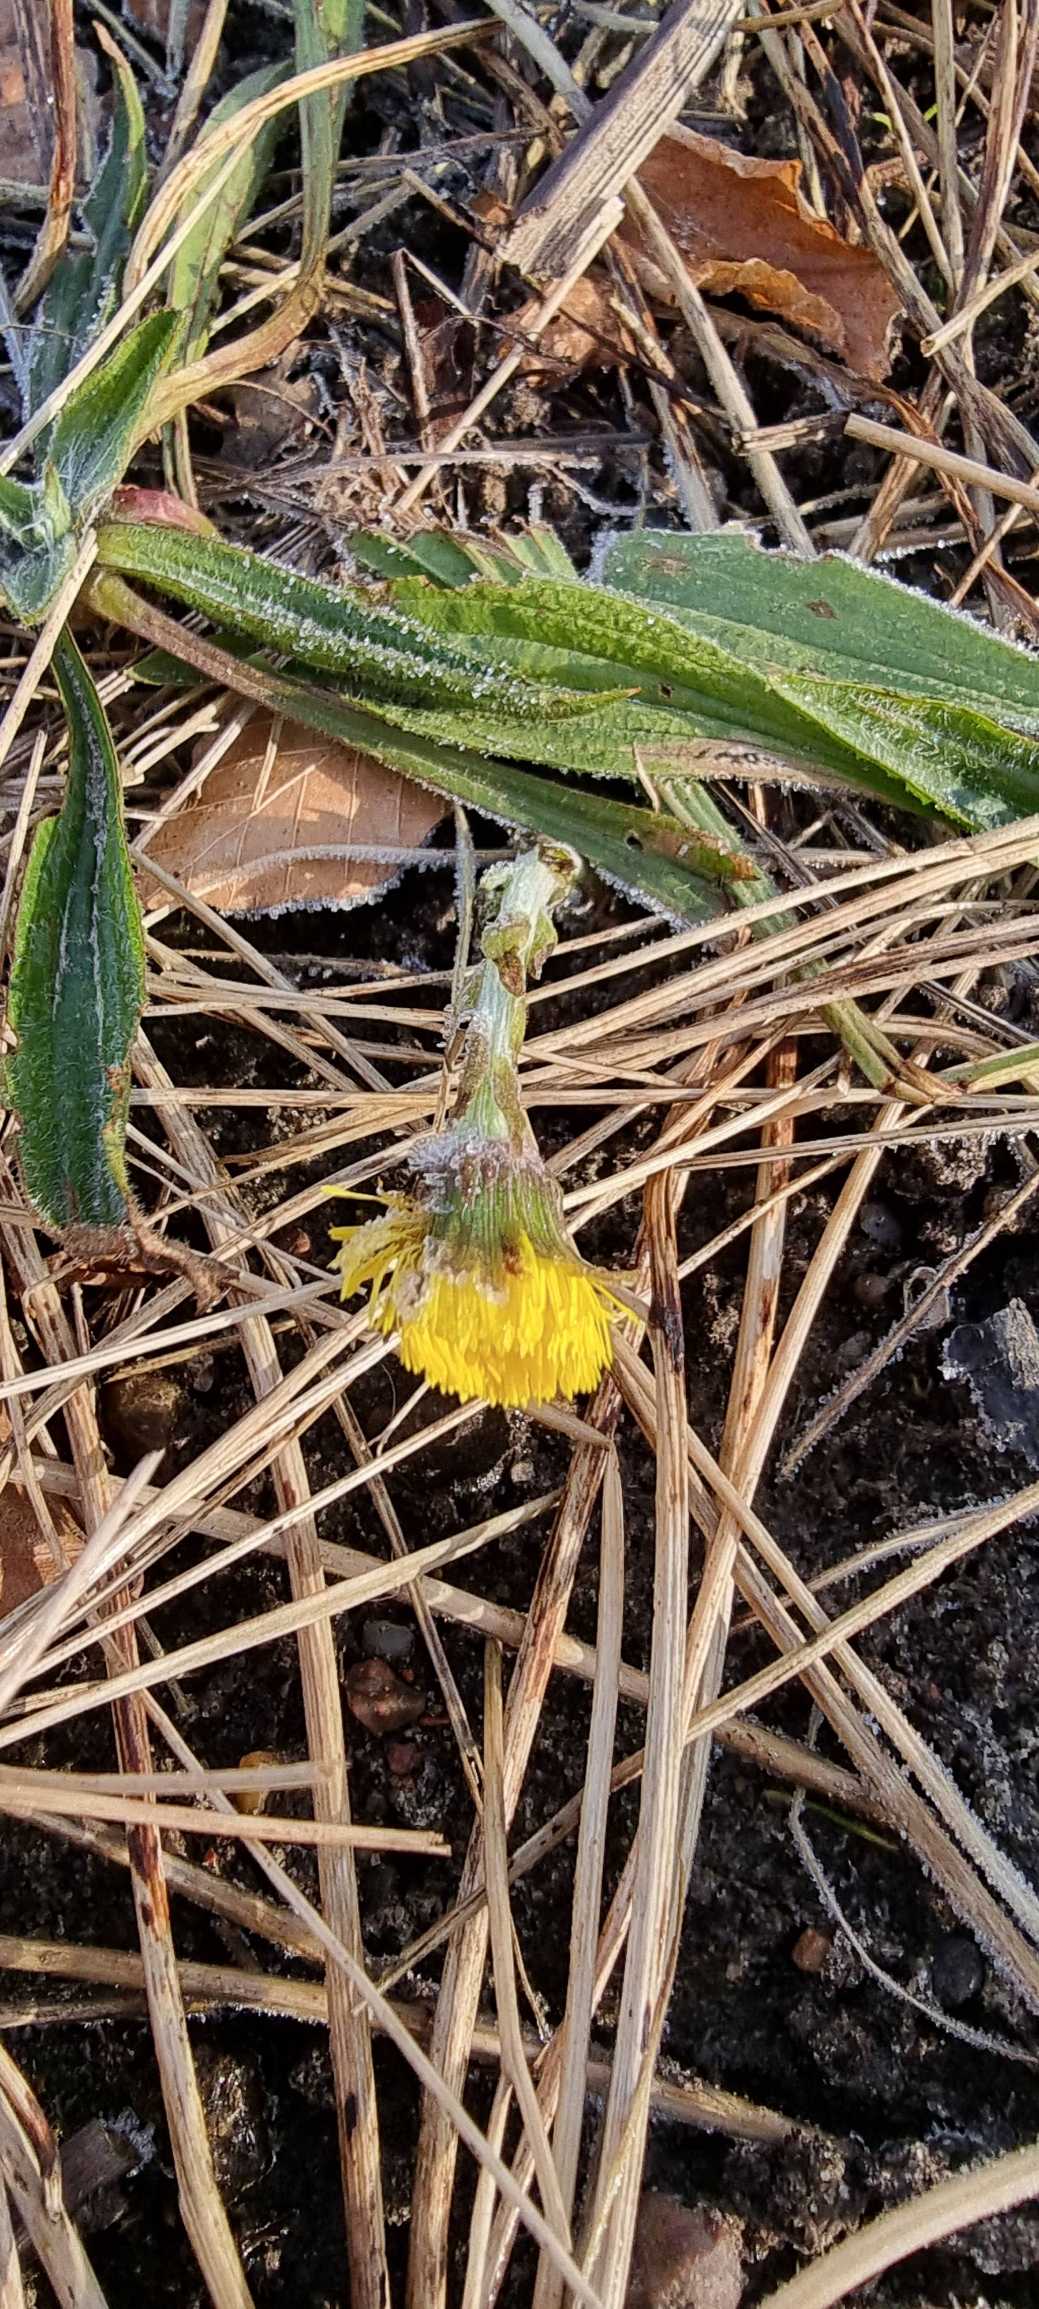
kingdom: Plantae
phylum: Tracheophyta
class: Magnoliopsida
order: Asterales
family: Asteraceae
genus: Tussilago
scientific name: Tussilago farfara
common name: Følfod
